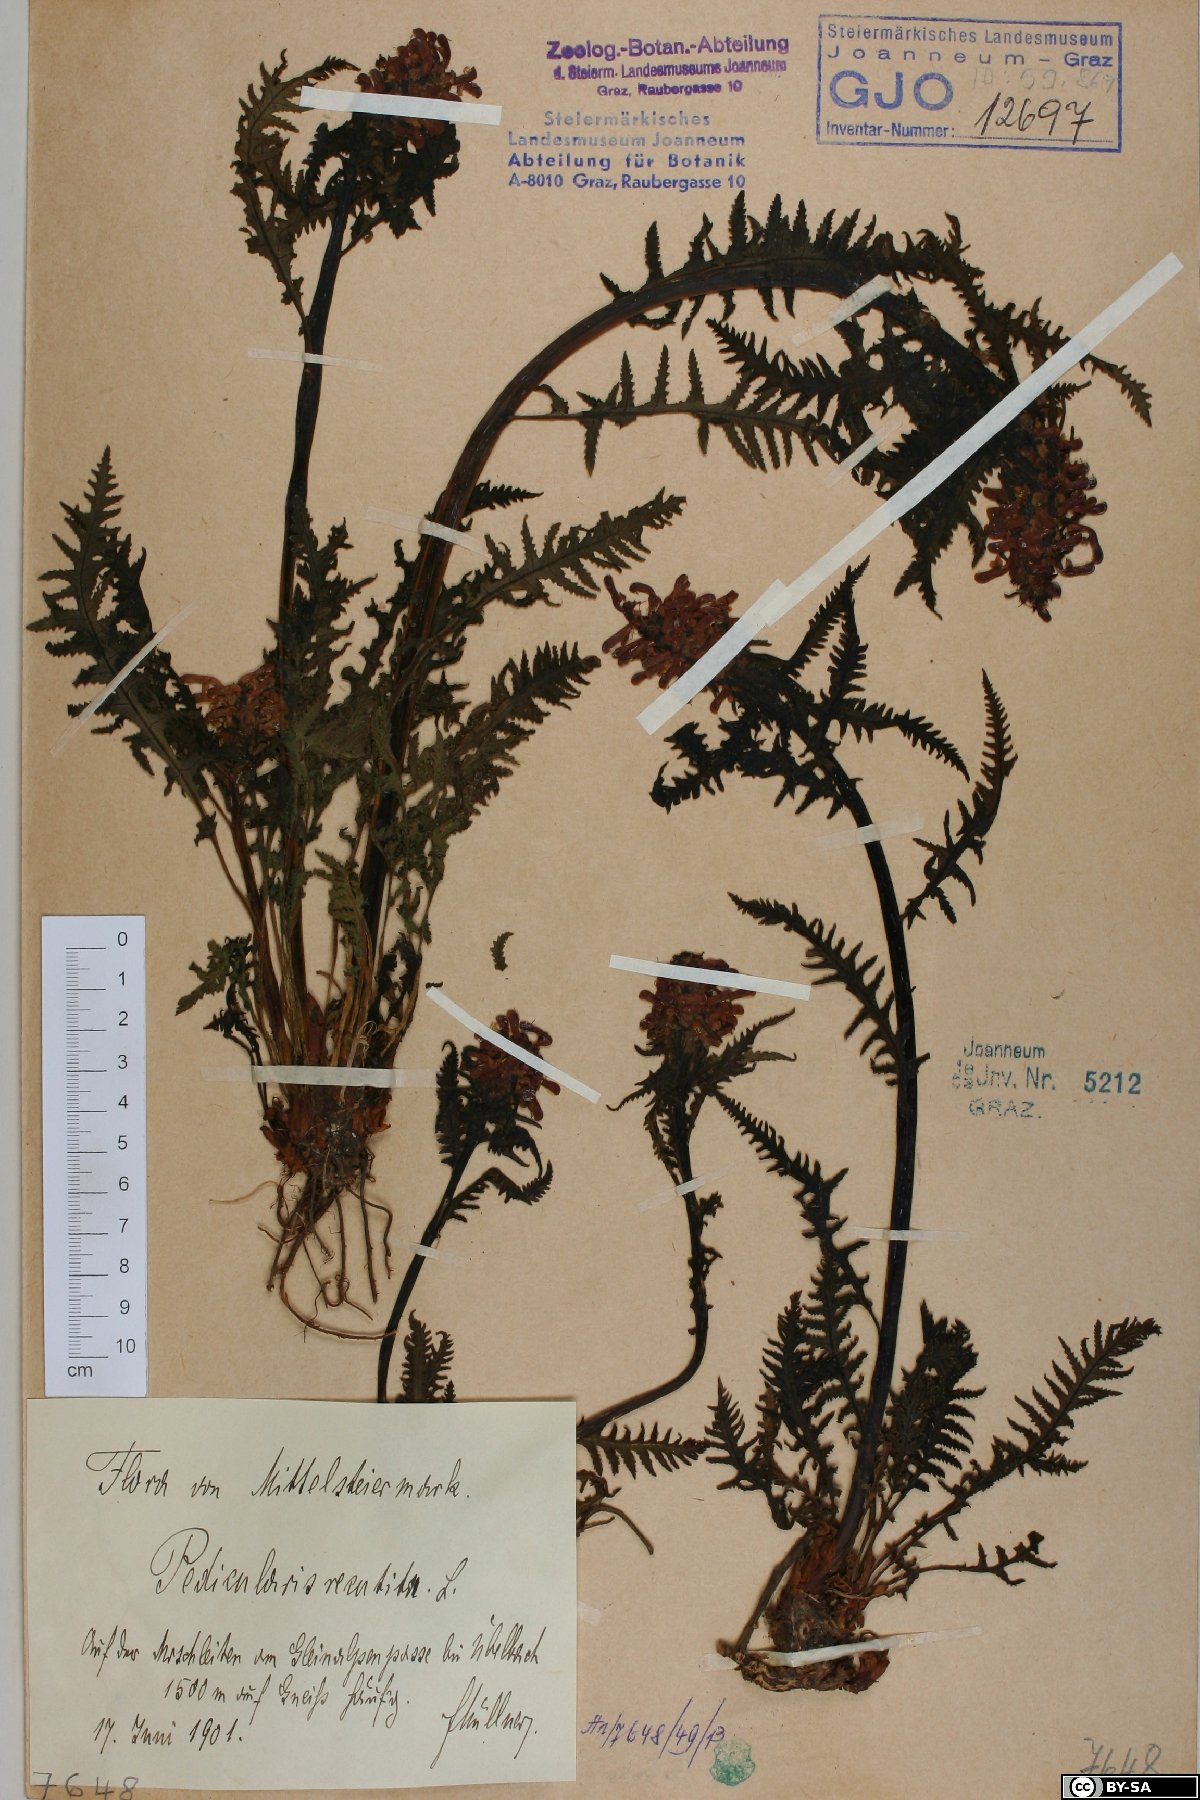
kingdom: Plantae
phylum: Tracheophyta
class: Magnoliopsida
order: Lamiales
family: Orobanchaceae
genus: Pedicularis
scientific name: Pedicularis recutita
